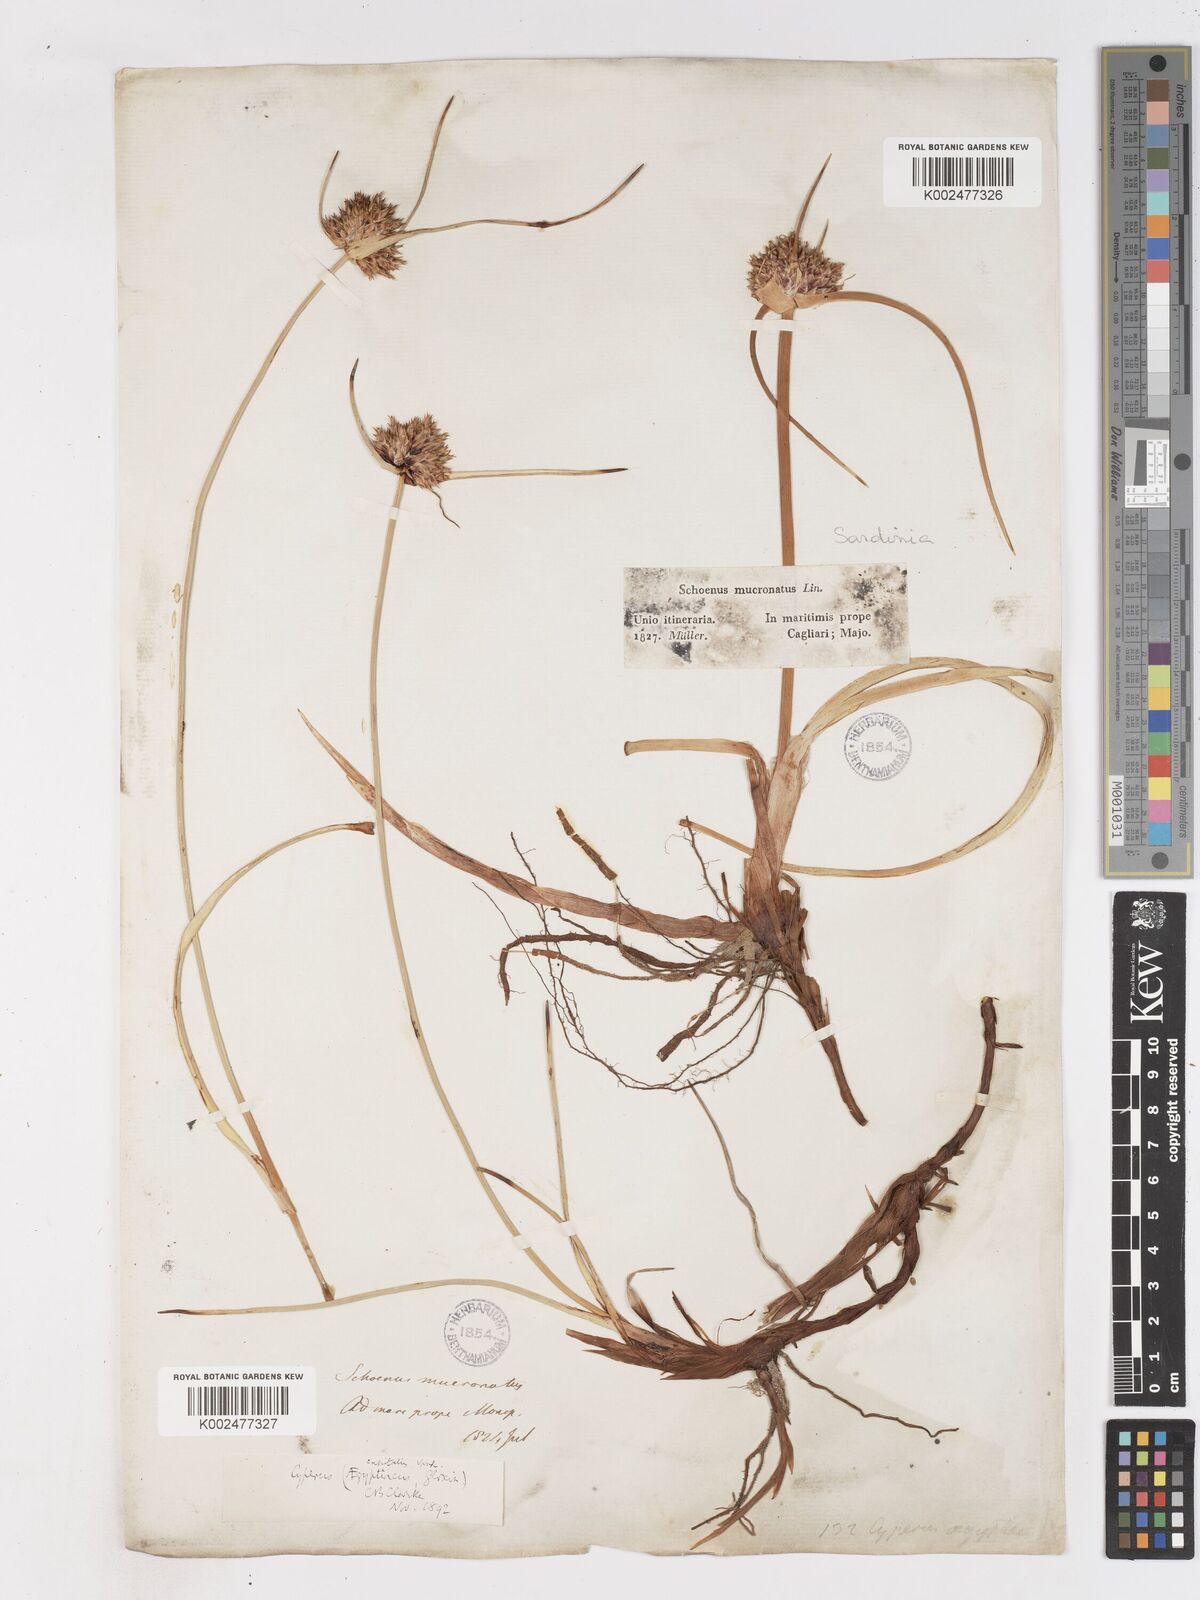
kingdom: Plantae
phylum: Tracheophyta
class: Liliopsida
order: Poales
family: Cyperaceae
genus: Cyperus
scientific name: Cyperus capitatus
